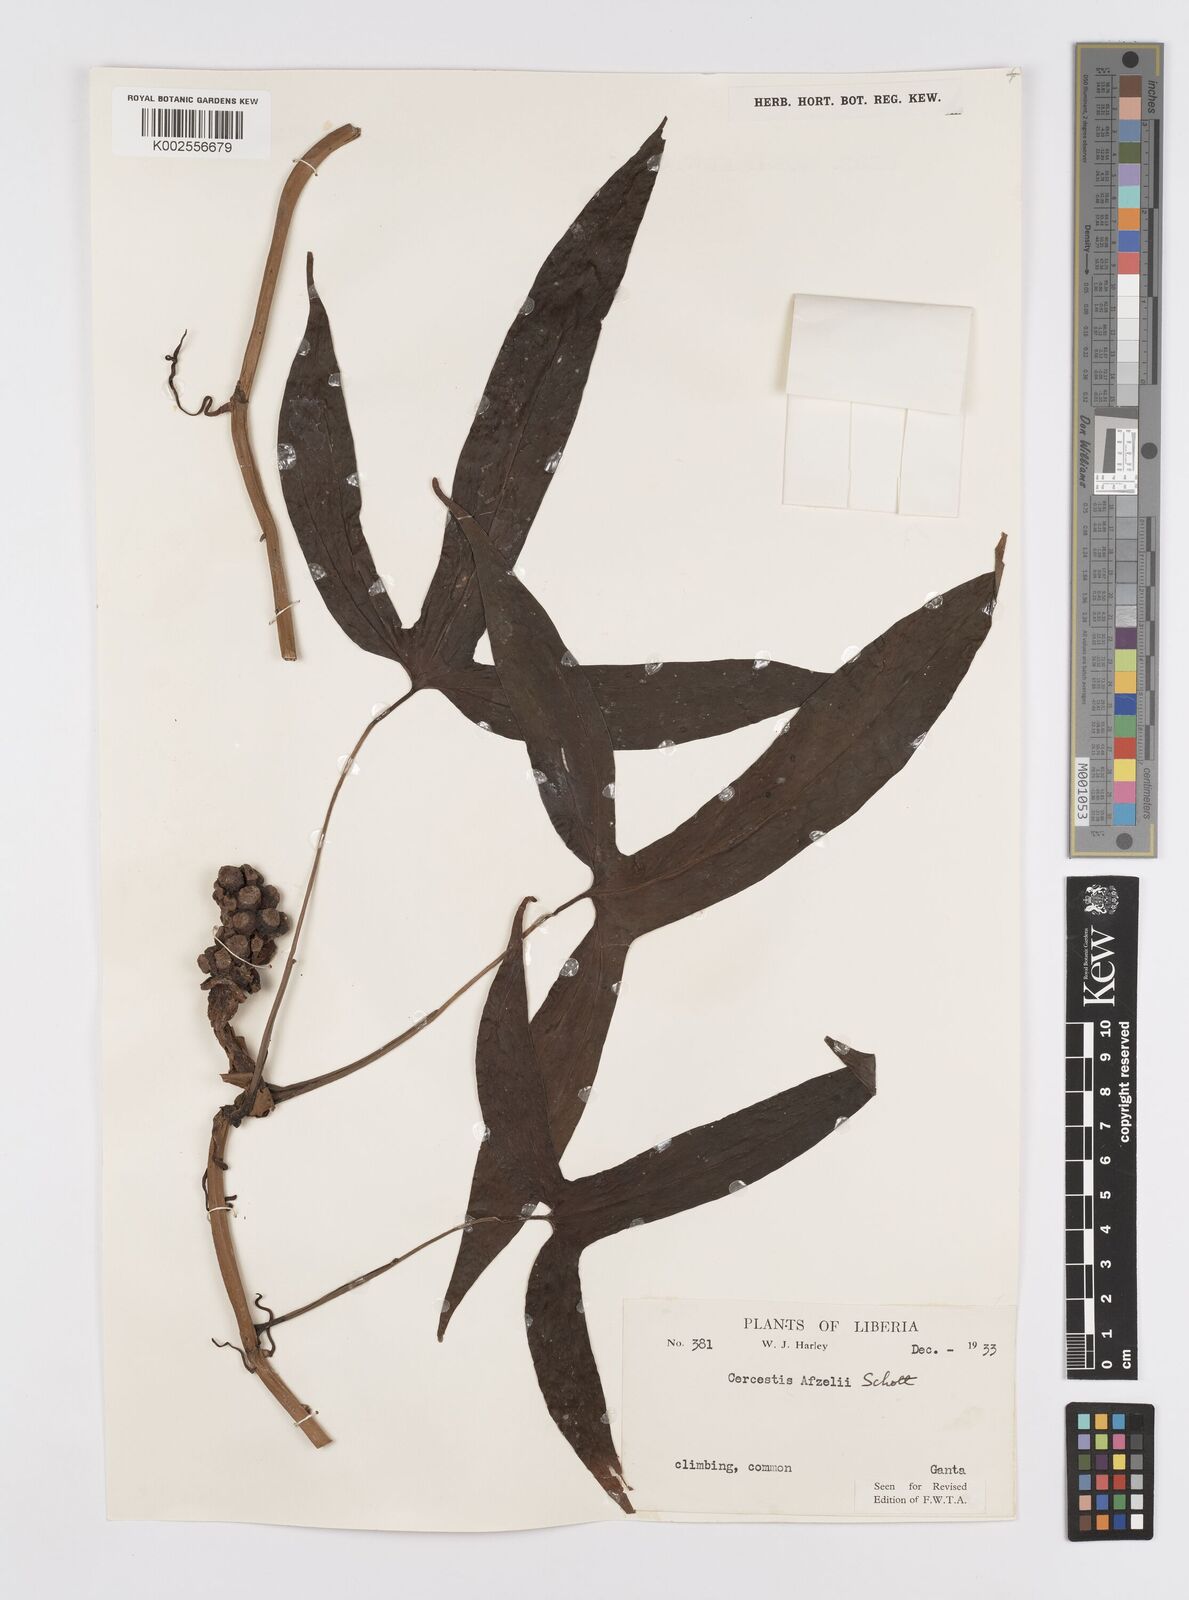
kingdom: Plantae
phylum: Tracheophyta
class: Liliopsida
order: Alismatales
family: Araceae
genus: Cercestis
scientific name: Cercestis afzelii
